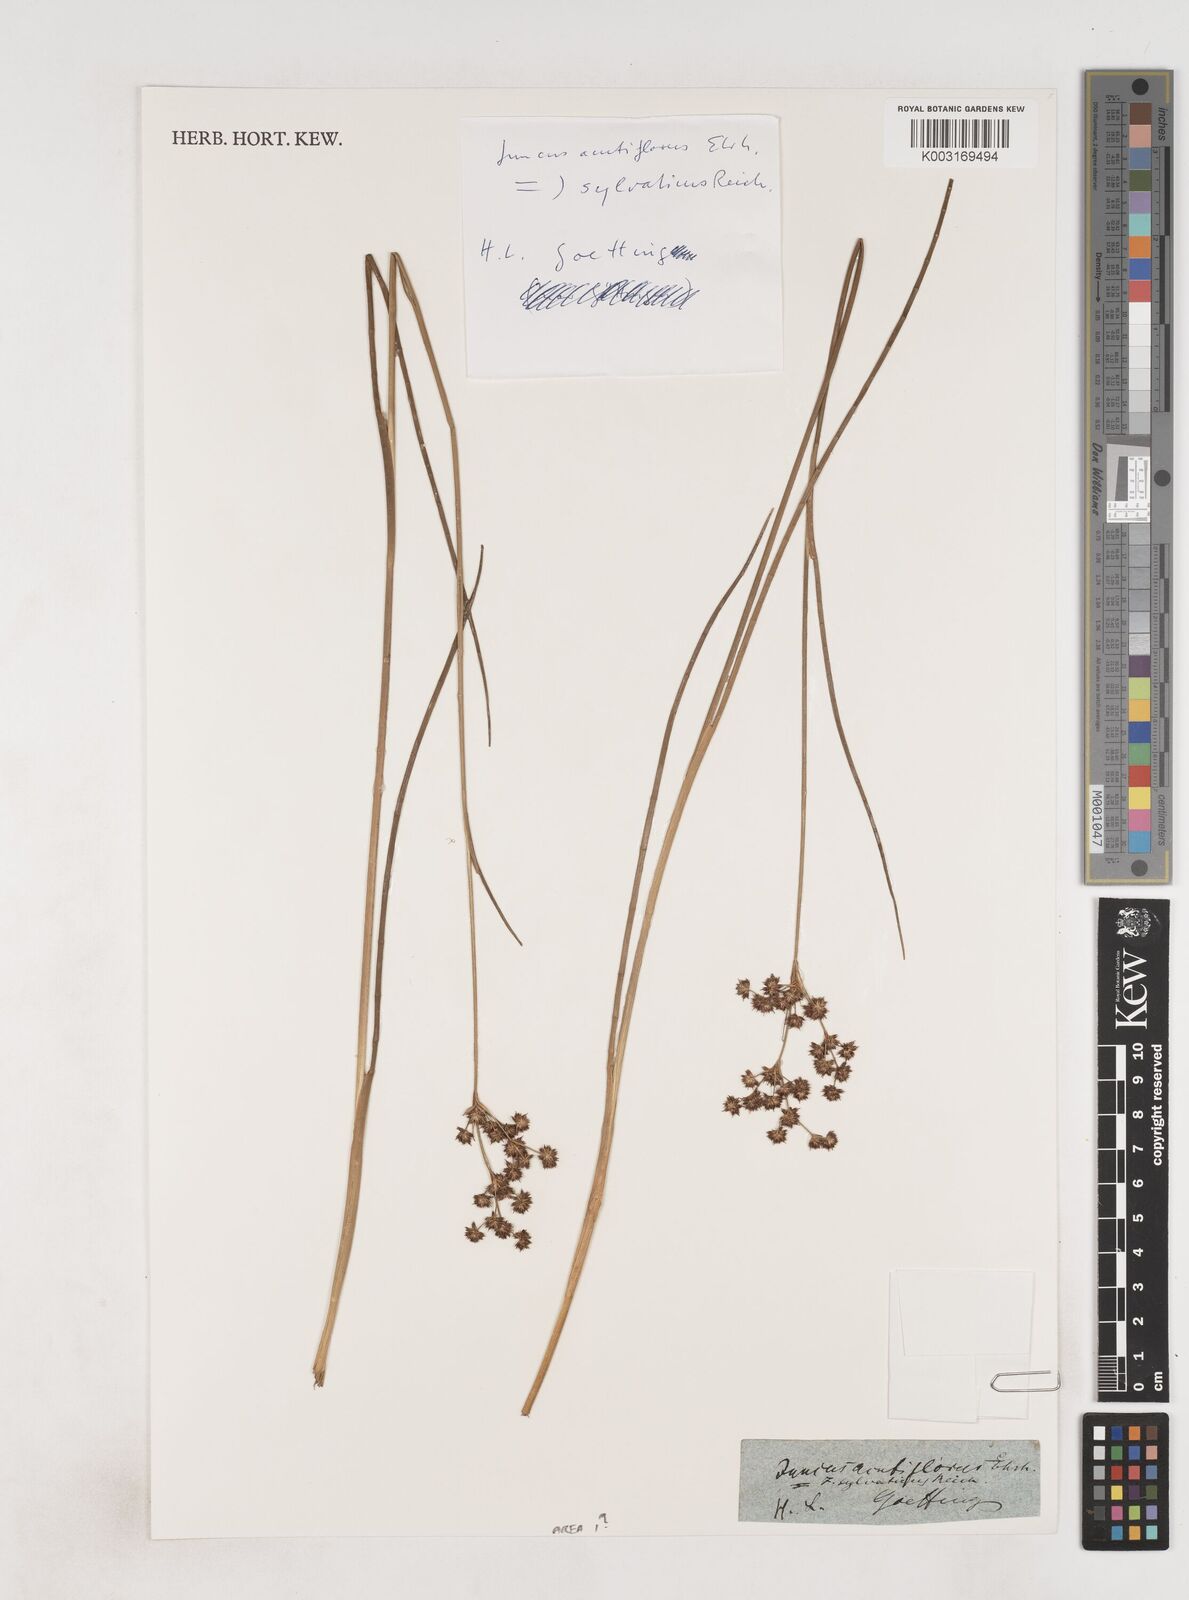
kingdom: Plantae
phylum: Tracheophyta
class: Liliopsida
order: Poales
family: Juncaceae
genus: Juncus
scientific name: Juncus acutiflorus
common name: Sharp-flowered rush
